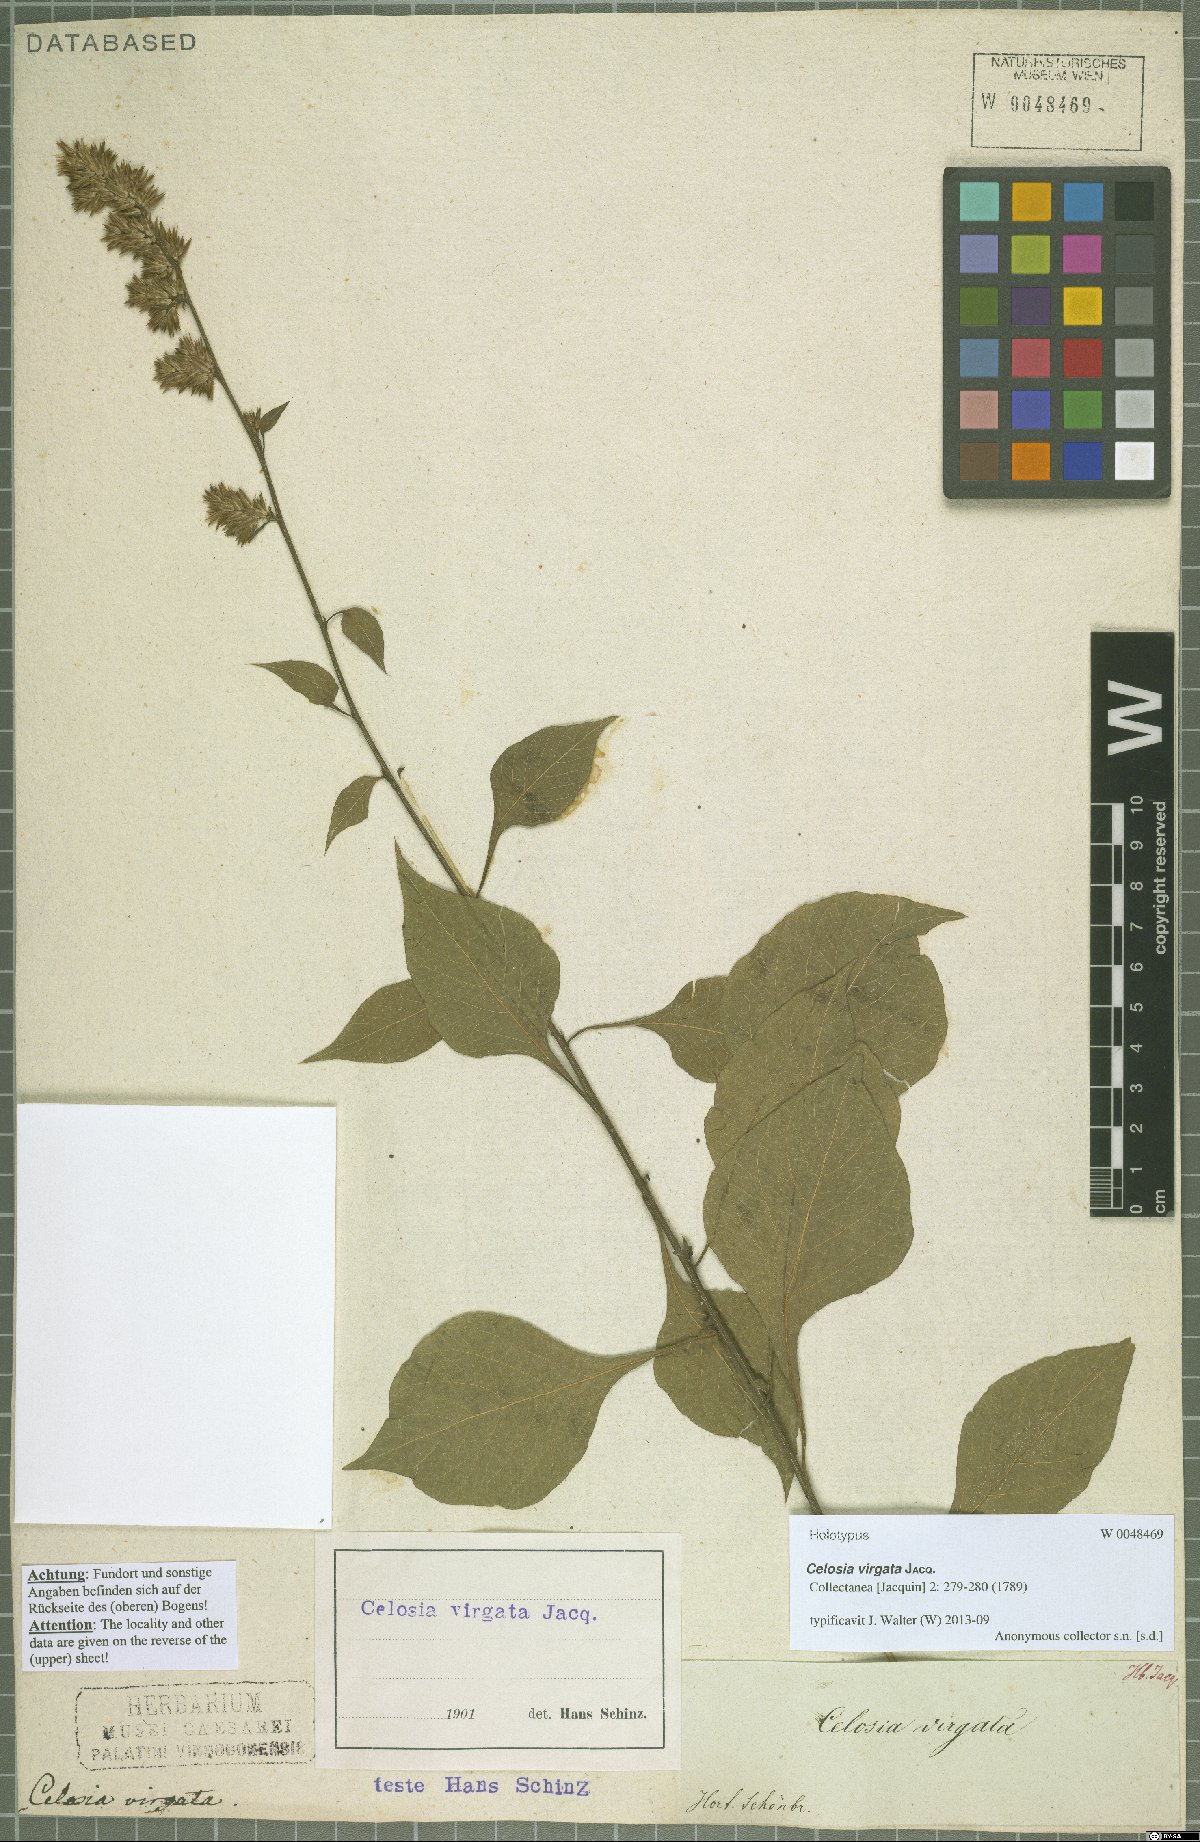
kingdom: Plantae
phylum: Tracheophyta
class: Magnoliopsida
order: Caryophyllales
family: Amaranthaceae
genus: Celosia
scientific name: Celosia virgata
